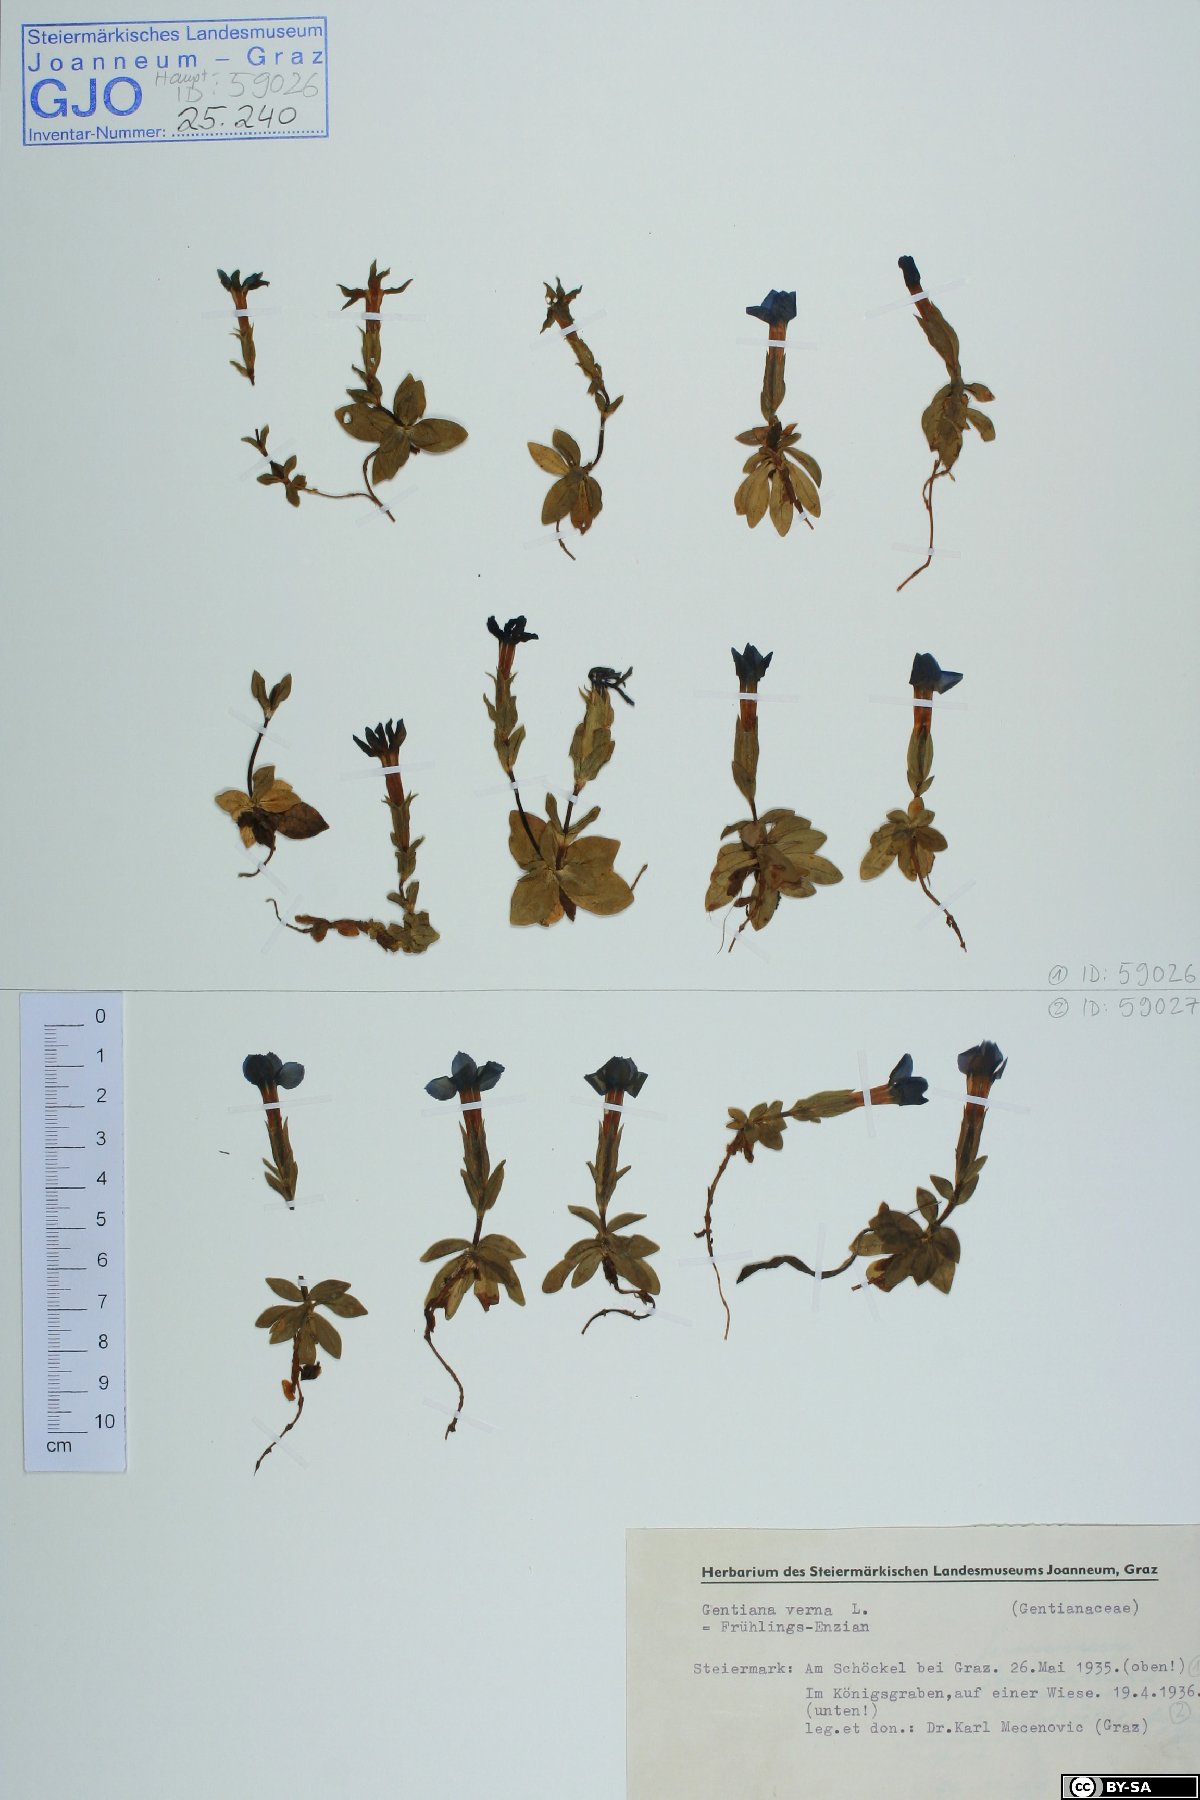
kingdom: Plantae
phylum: Tracheophyta
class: Magnoliopsida
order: Gentianales
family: Gentianaceae
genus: Gentiana
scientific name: Gentiana verna
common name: Spring gentian
